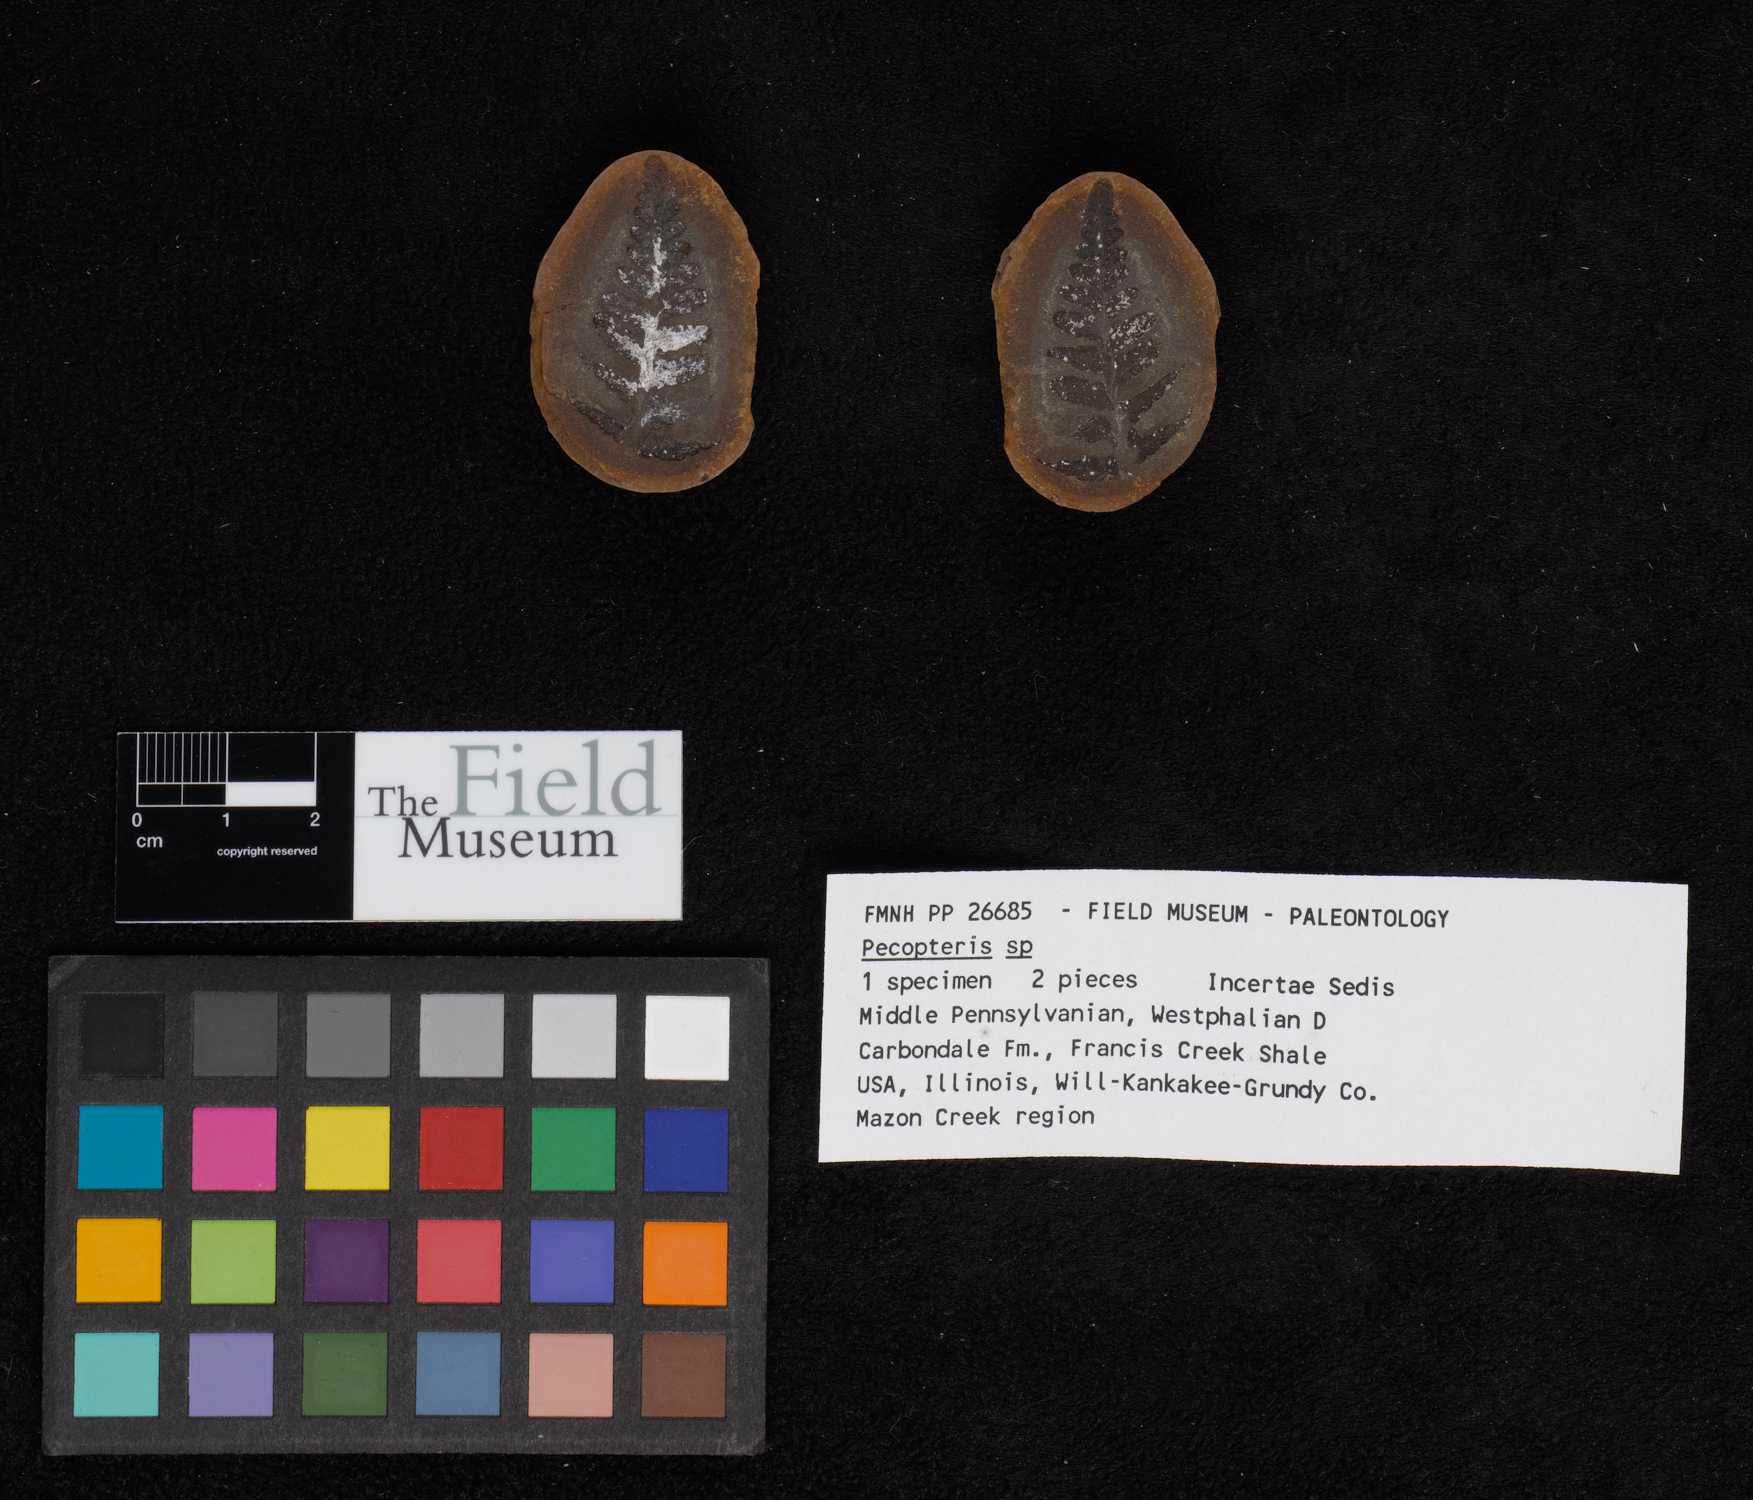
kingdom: Plantae
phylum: Tracheophyta
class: Polypodiopsida
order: Marattiales
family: Asterothecaceae
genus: Pecopteris
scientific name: Pecopteris
